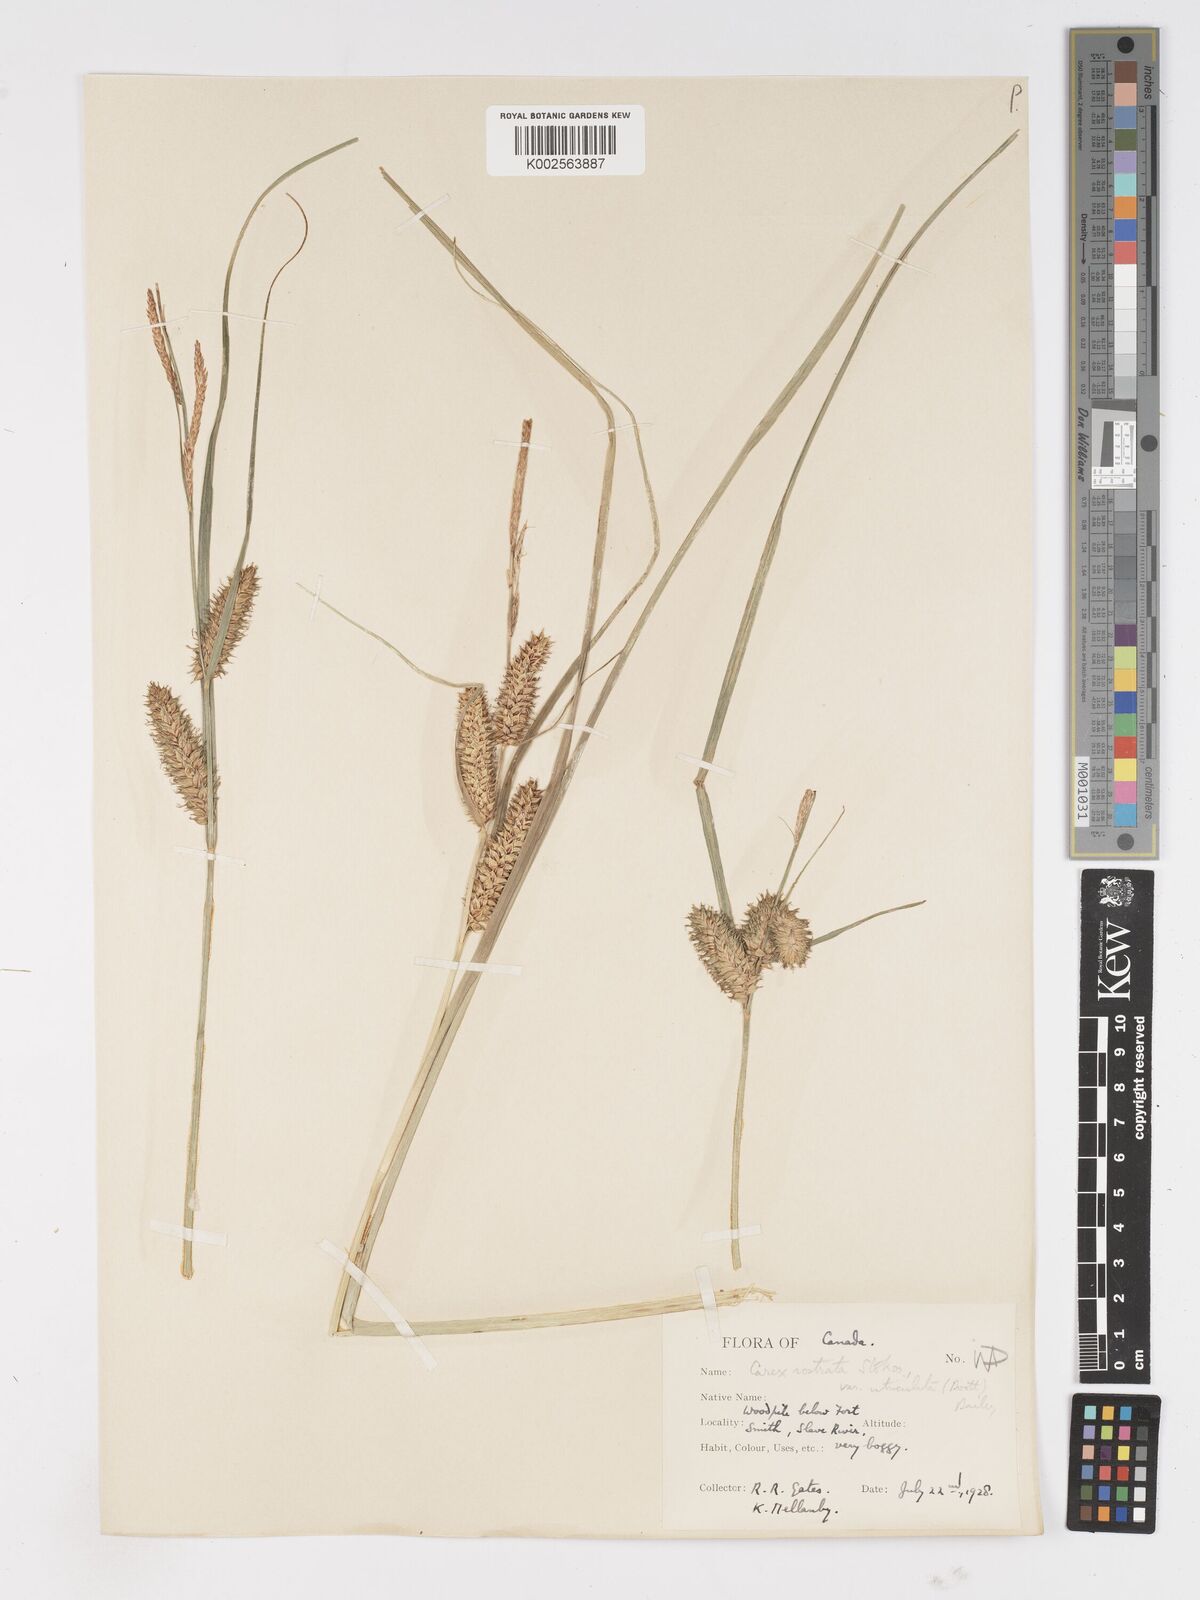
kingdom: Plantae
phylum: Tracheophyta
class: Liliopsida
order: Poales
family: Cyperaceae
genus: Carex
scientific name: Carex rostrata
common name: Bottle sedge
